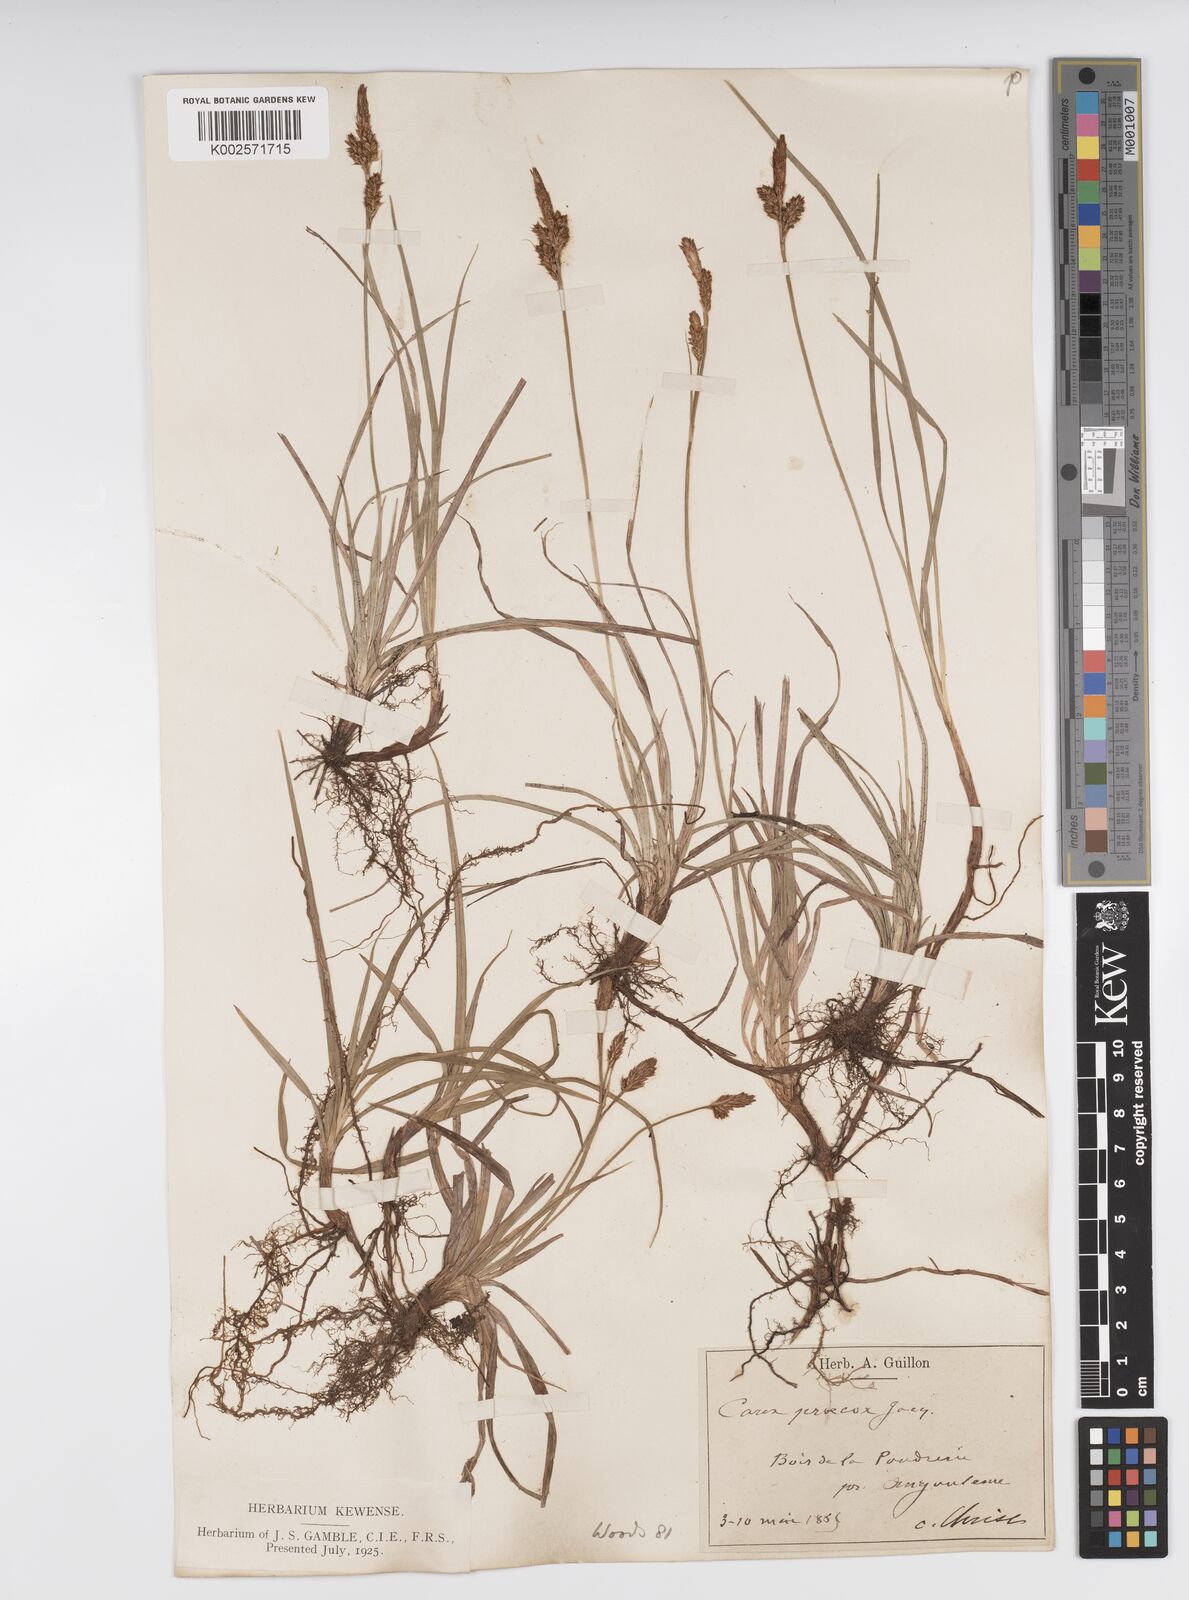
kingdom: Plantae
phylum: Tracheophyta
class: Liliopsida
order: Poales
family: Cyperaceae
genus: Carex
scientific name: Carex caryophyllea
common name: Spring sedge
